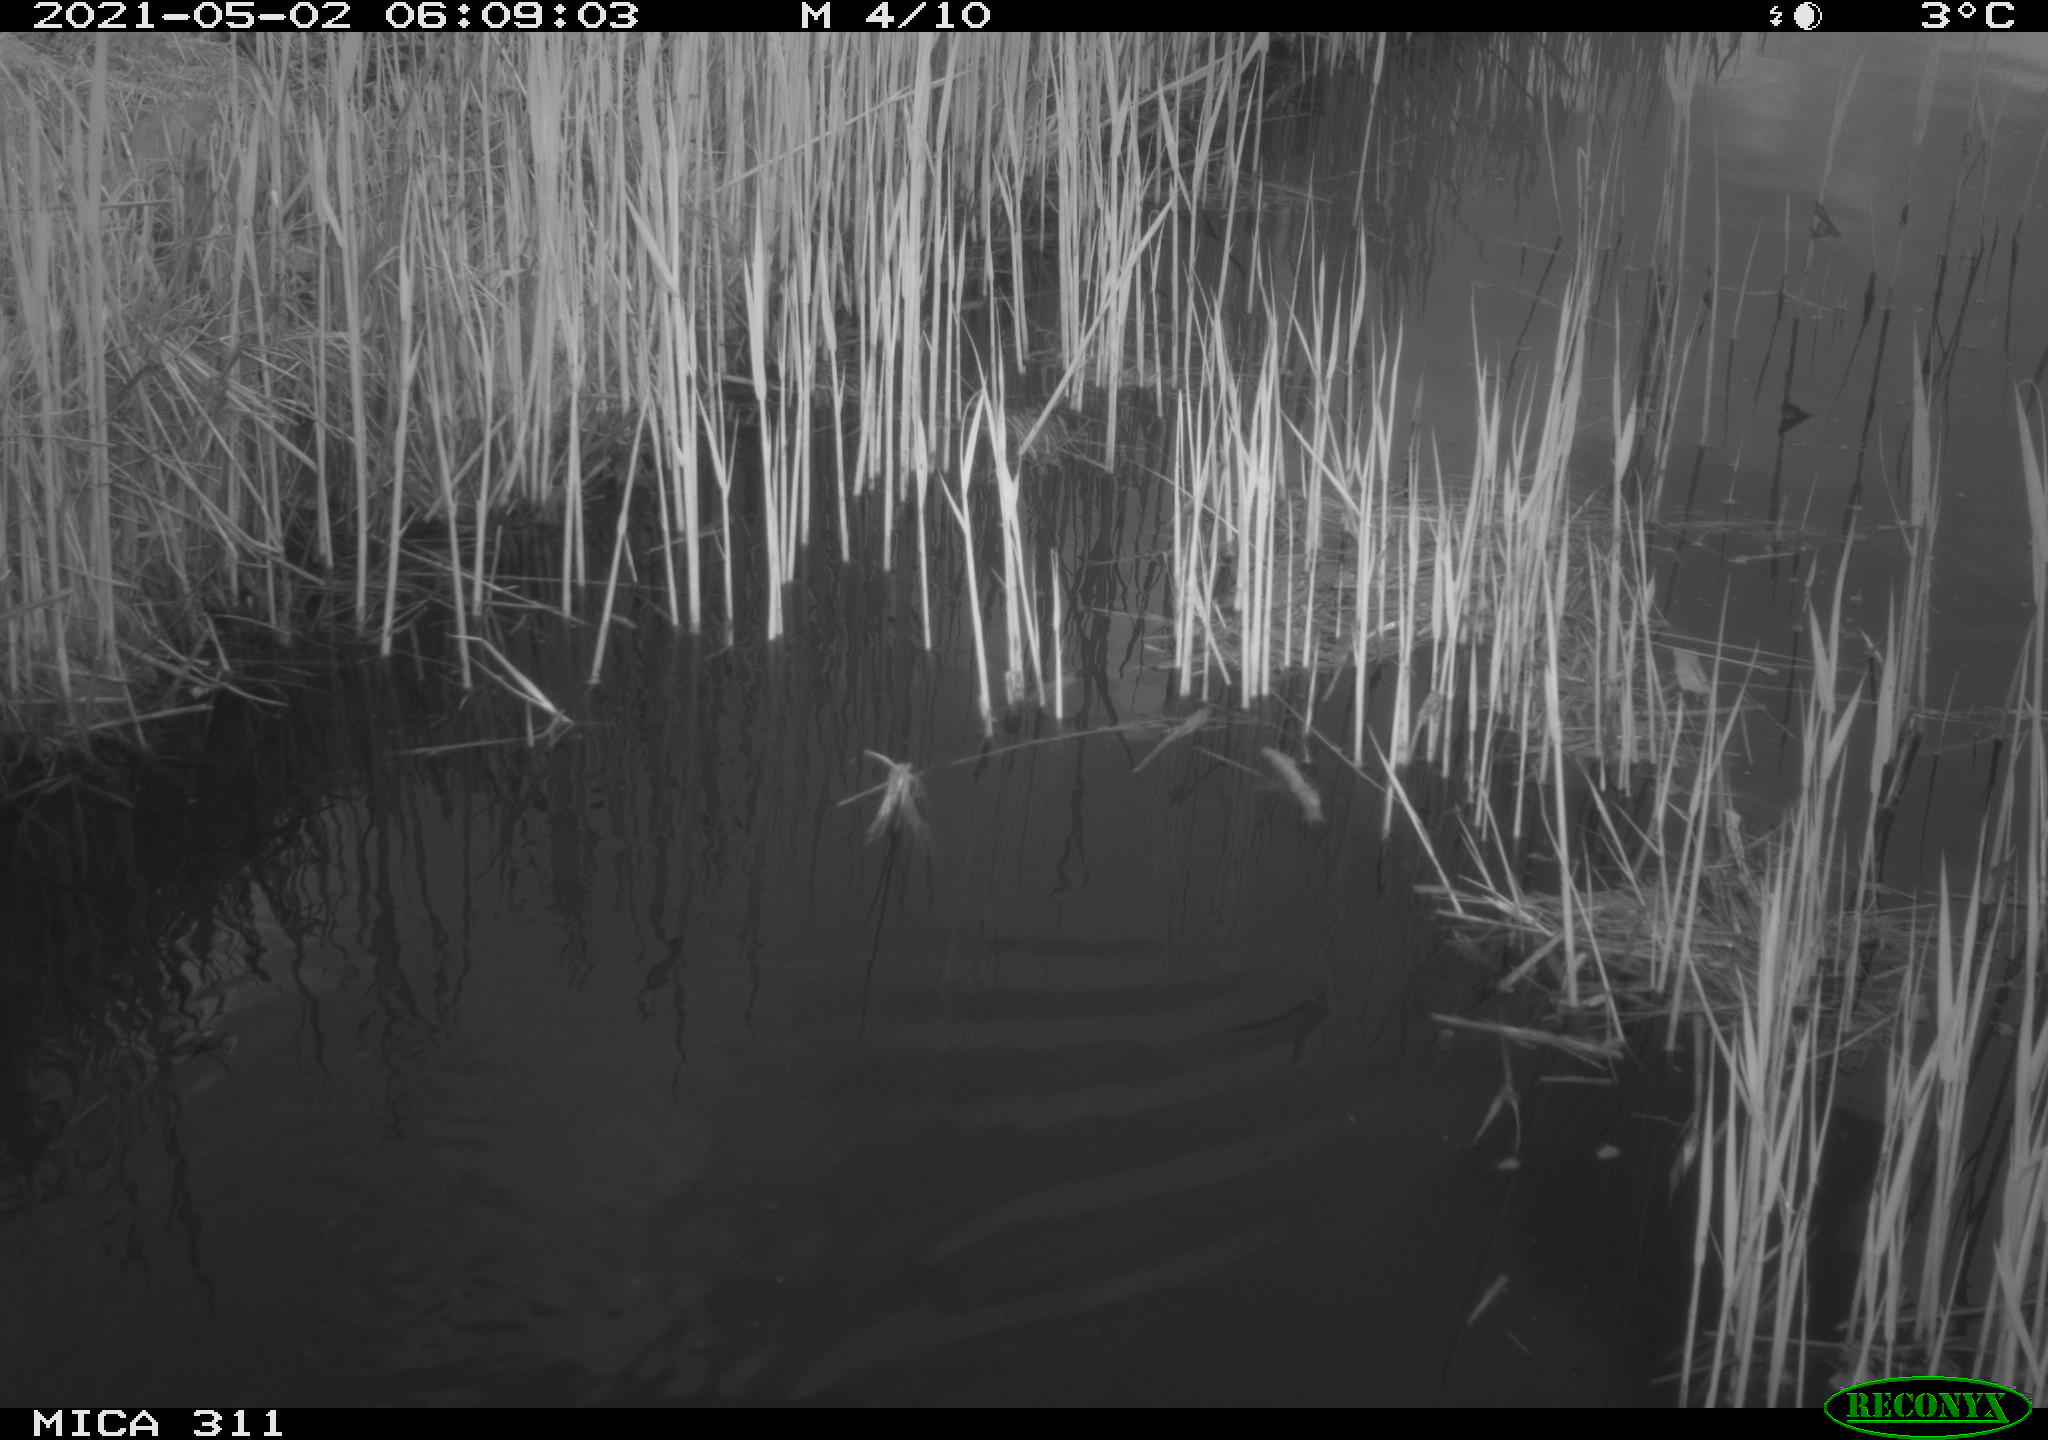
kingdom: Animalia
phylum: Chordata
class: Aves
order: Anseriformes
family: Anatidae
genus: Anas
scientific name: Anas platyrhynchos
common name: Mallard
